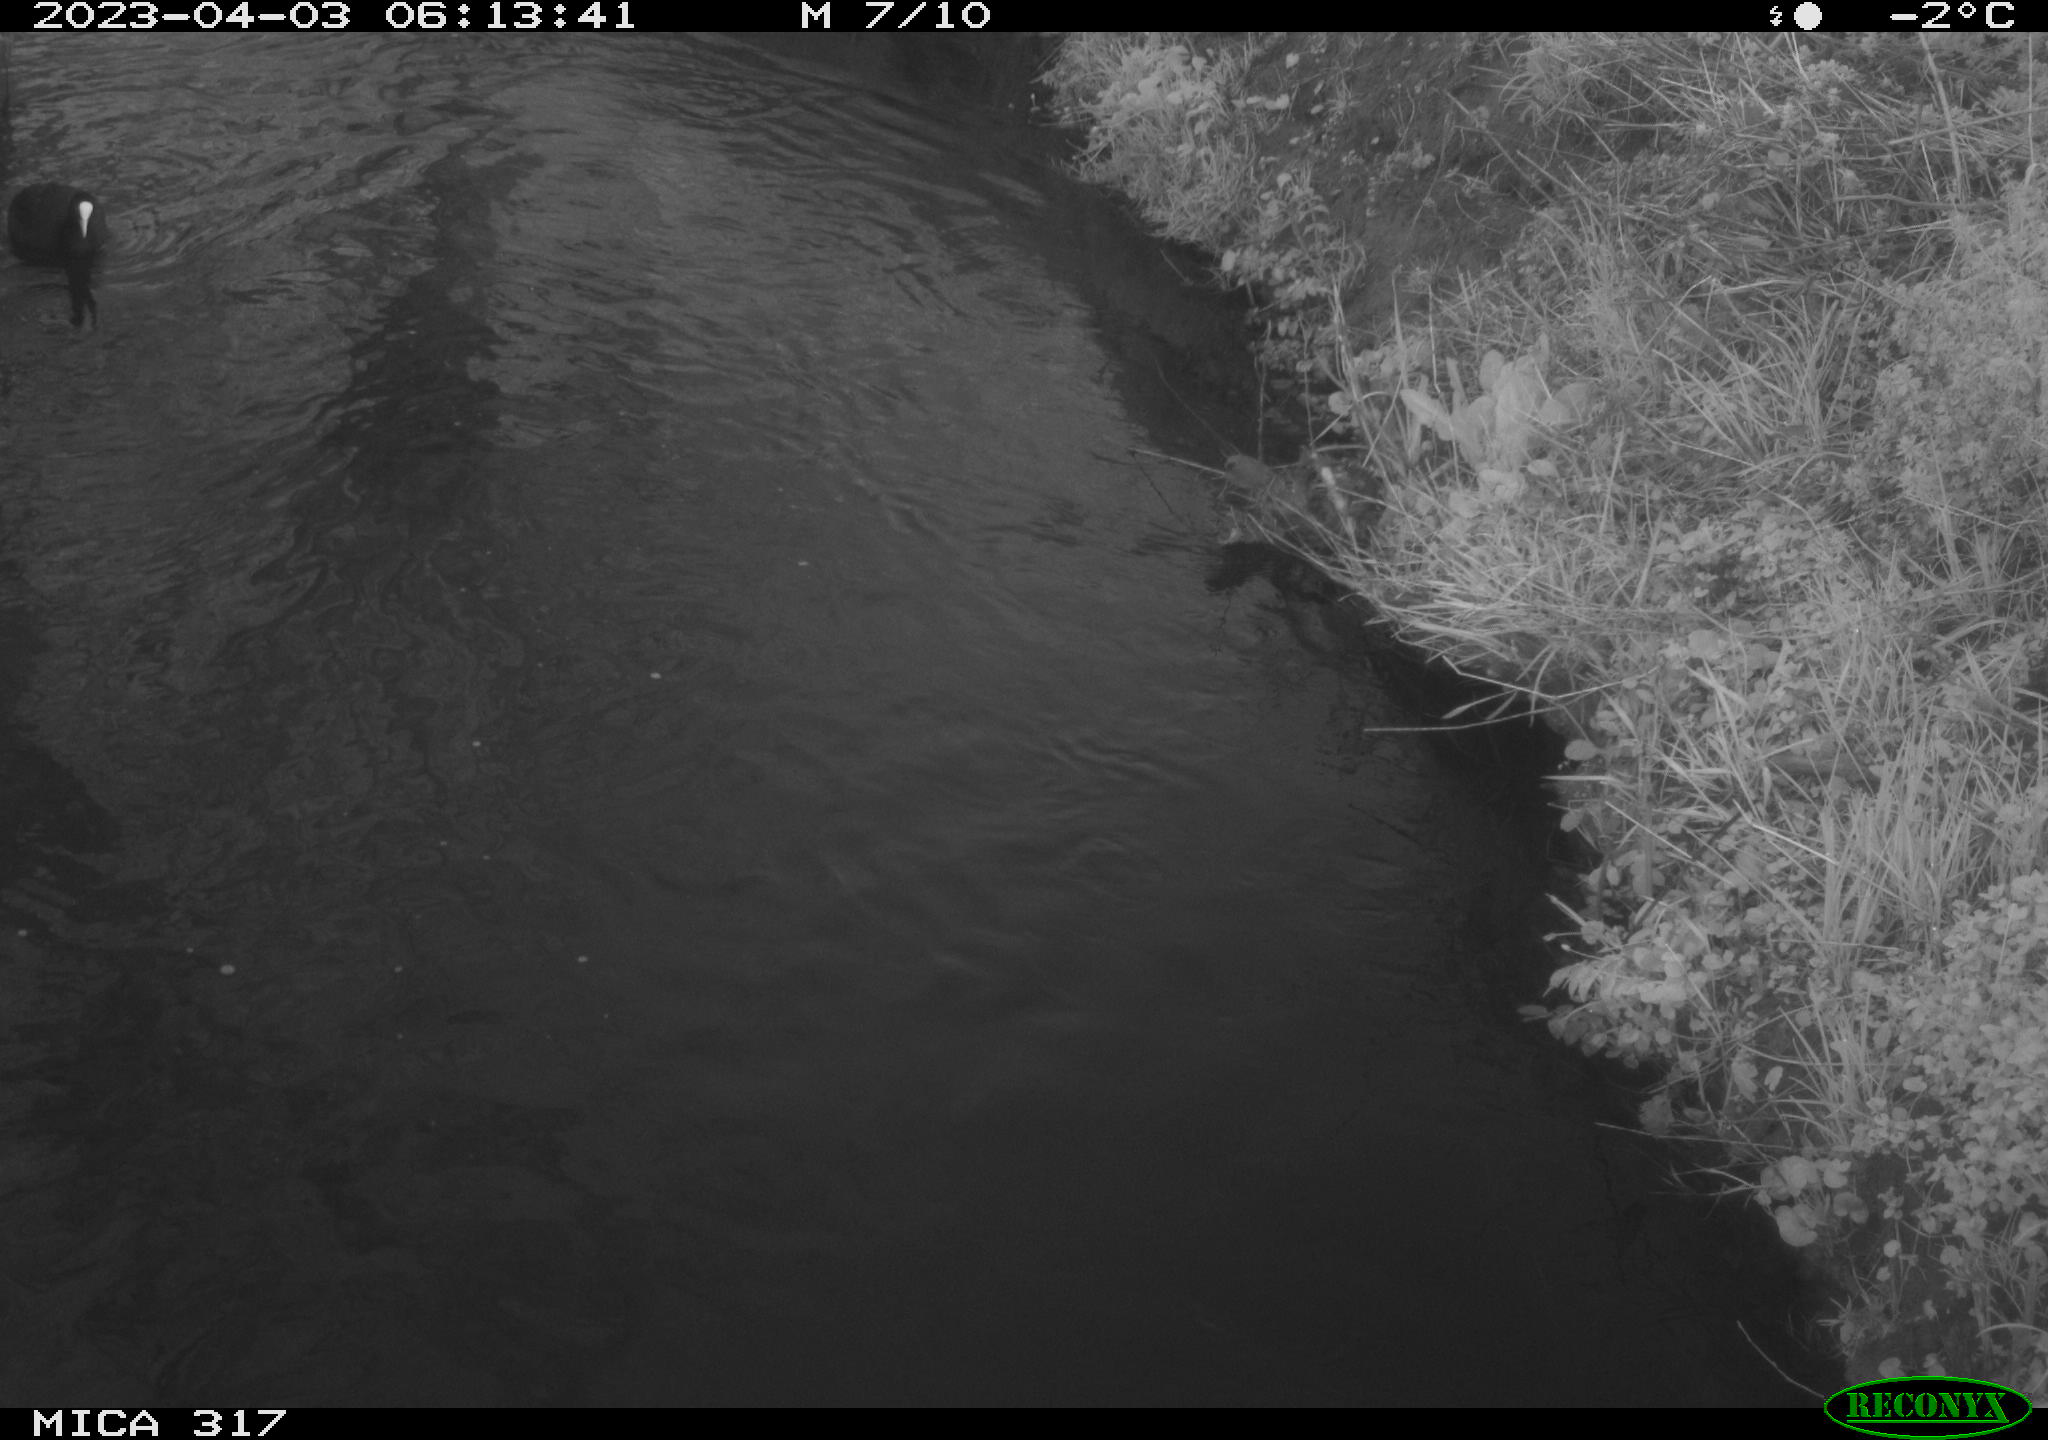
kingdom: Animalia
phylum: Chordata
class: Aves
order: Anseriformes
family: Anatidae
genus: Anas
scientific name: Anas
